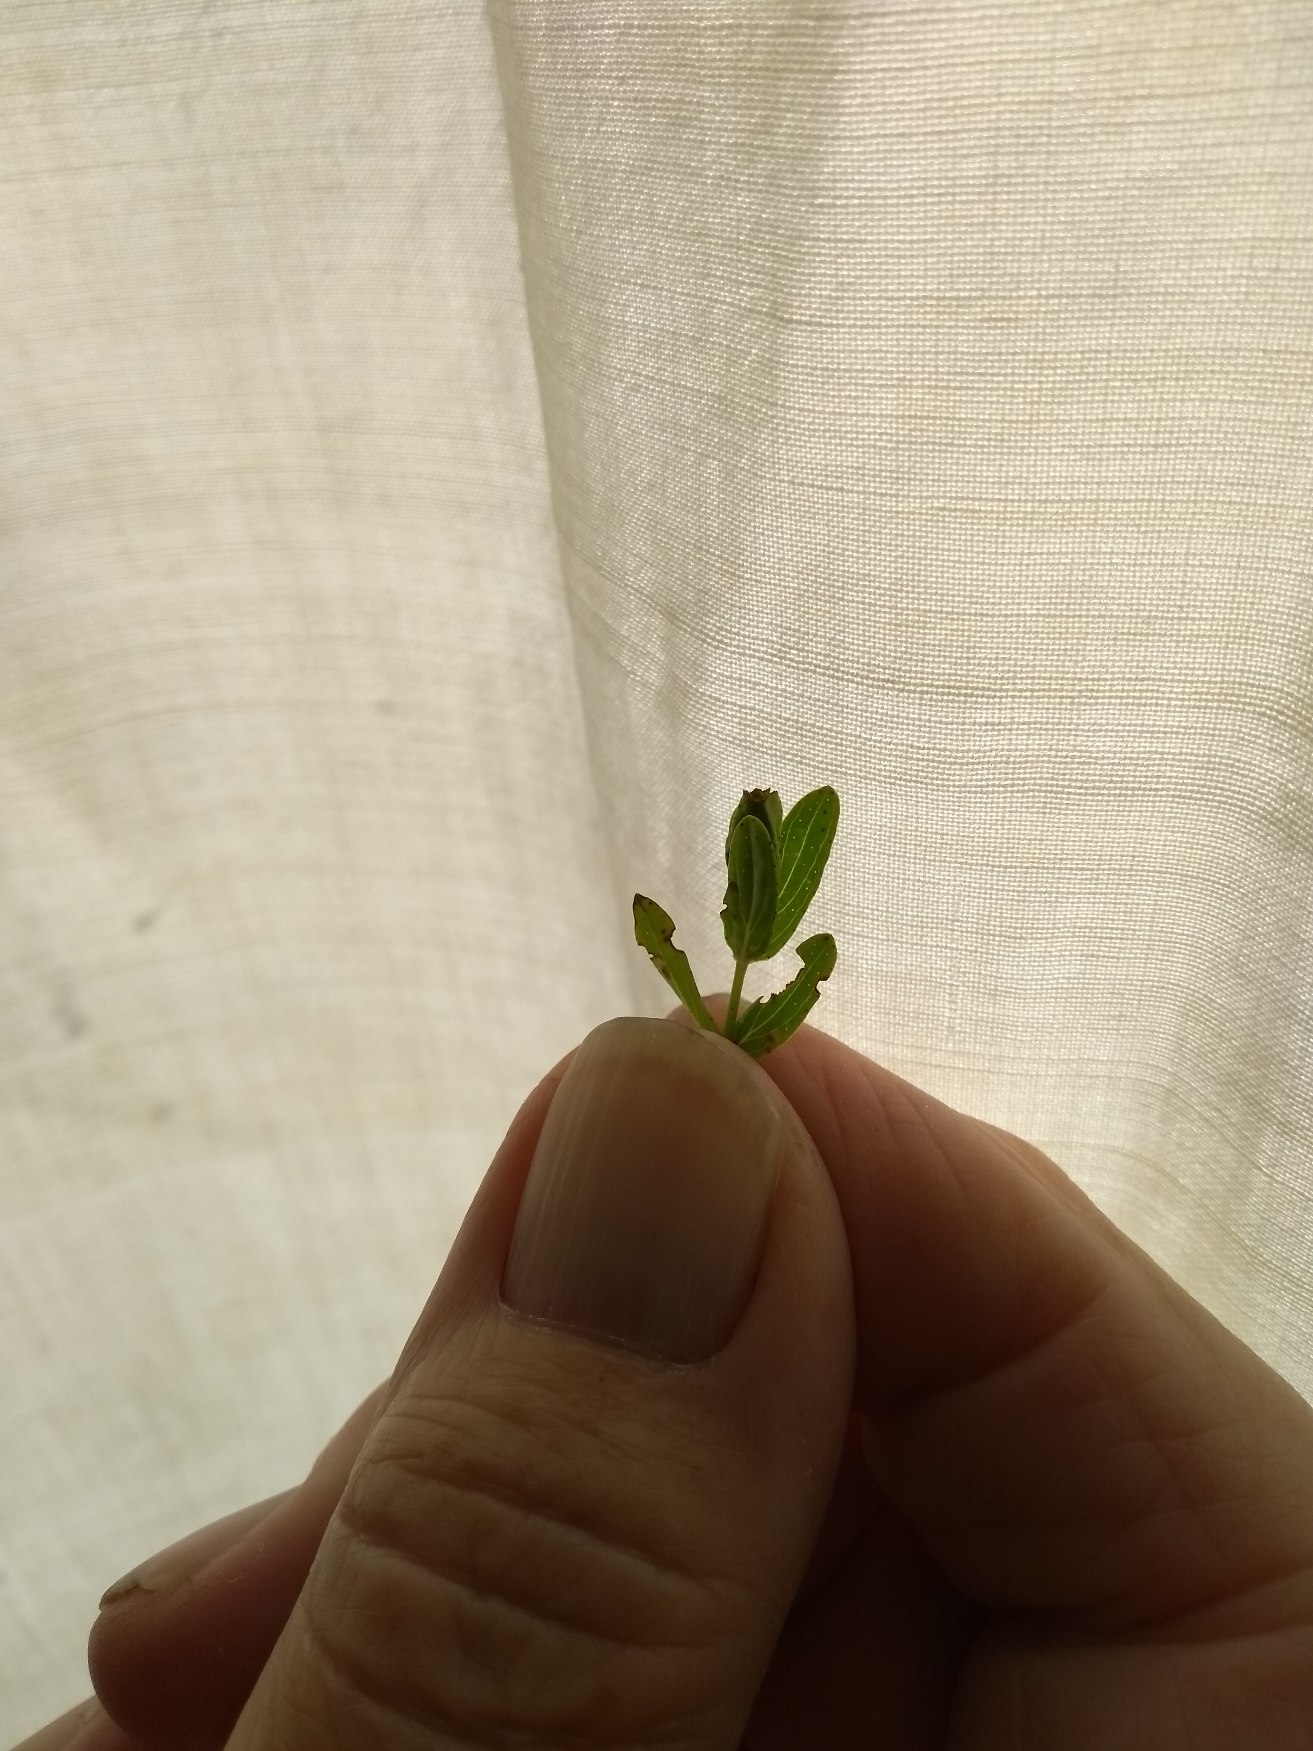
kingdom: Plantae
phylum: Tracheophyta
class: Magnoliopsida
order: Malpighiales
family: Hypericaceae
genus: Hypericum
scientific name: Hypericum perforatum
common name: Prikbladet perikon
